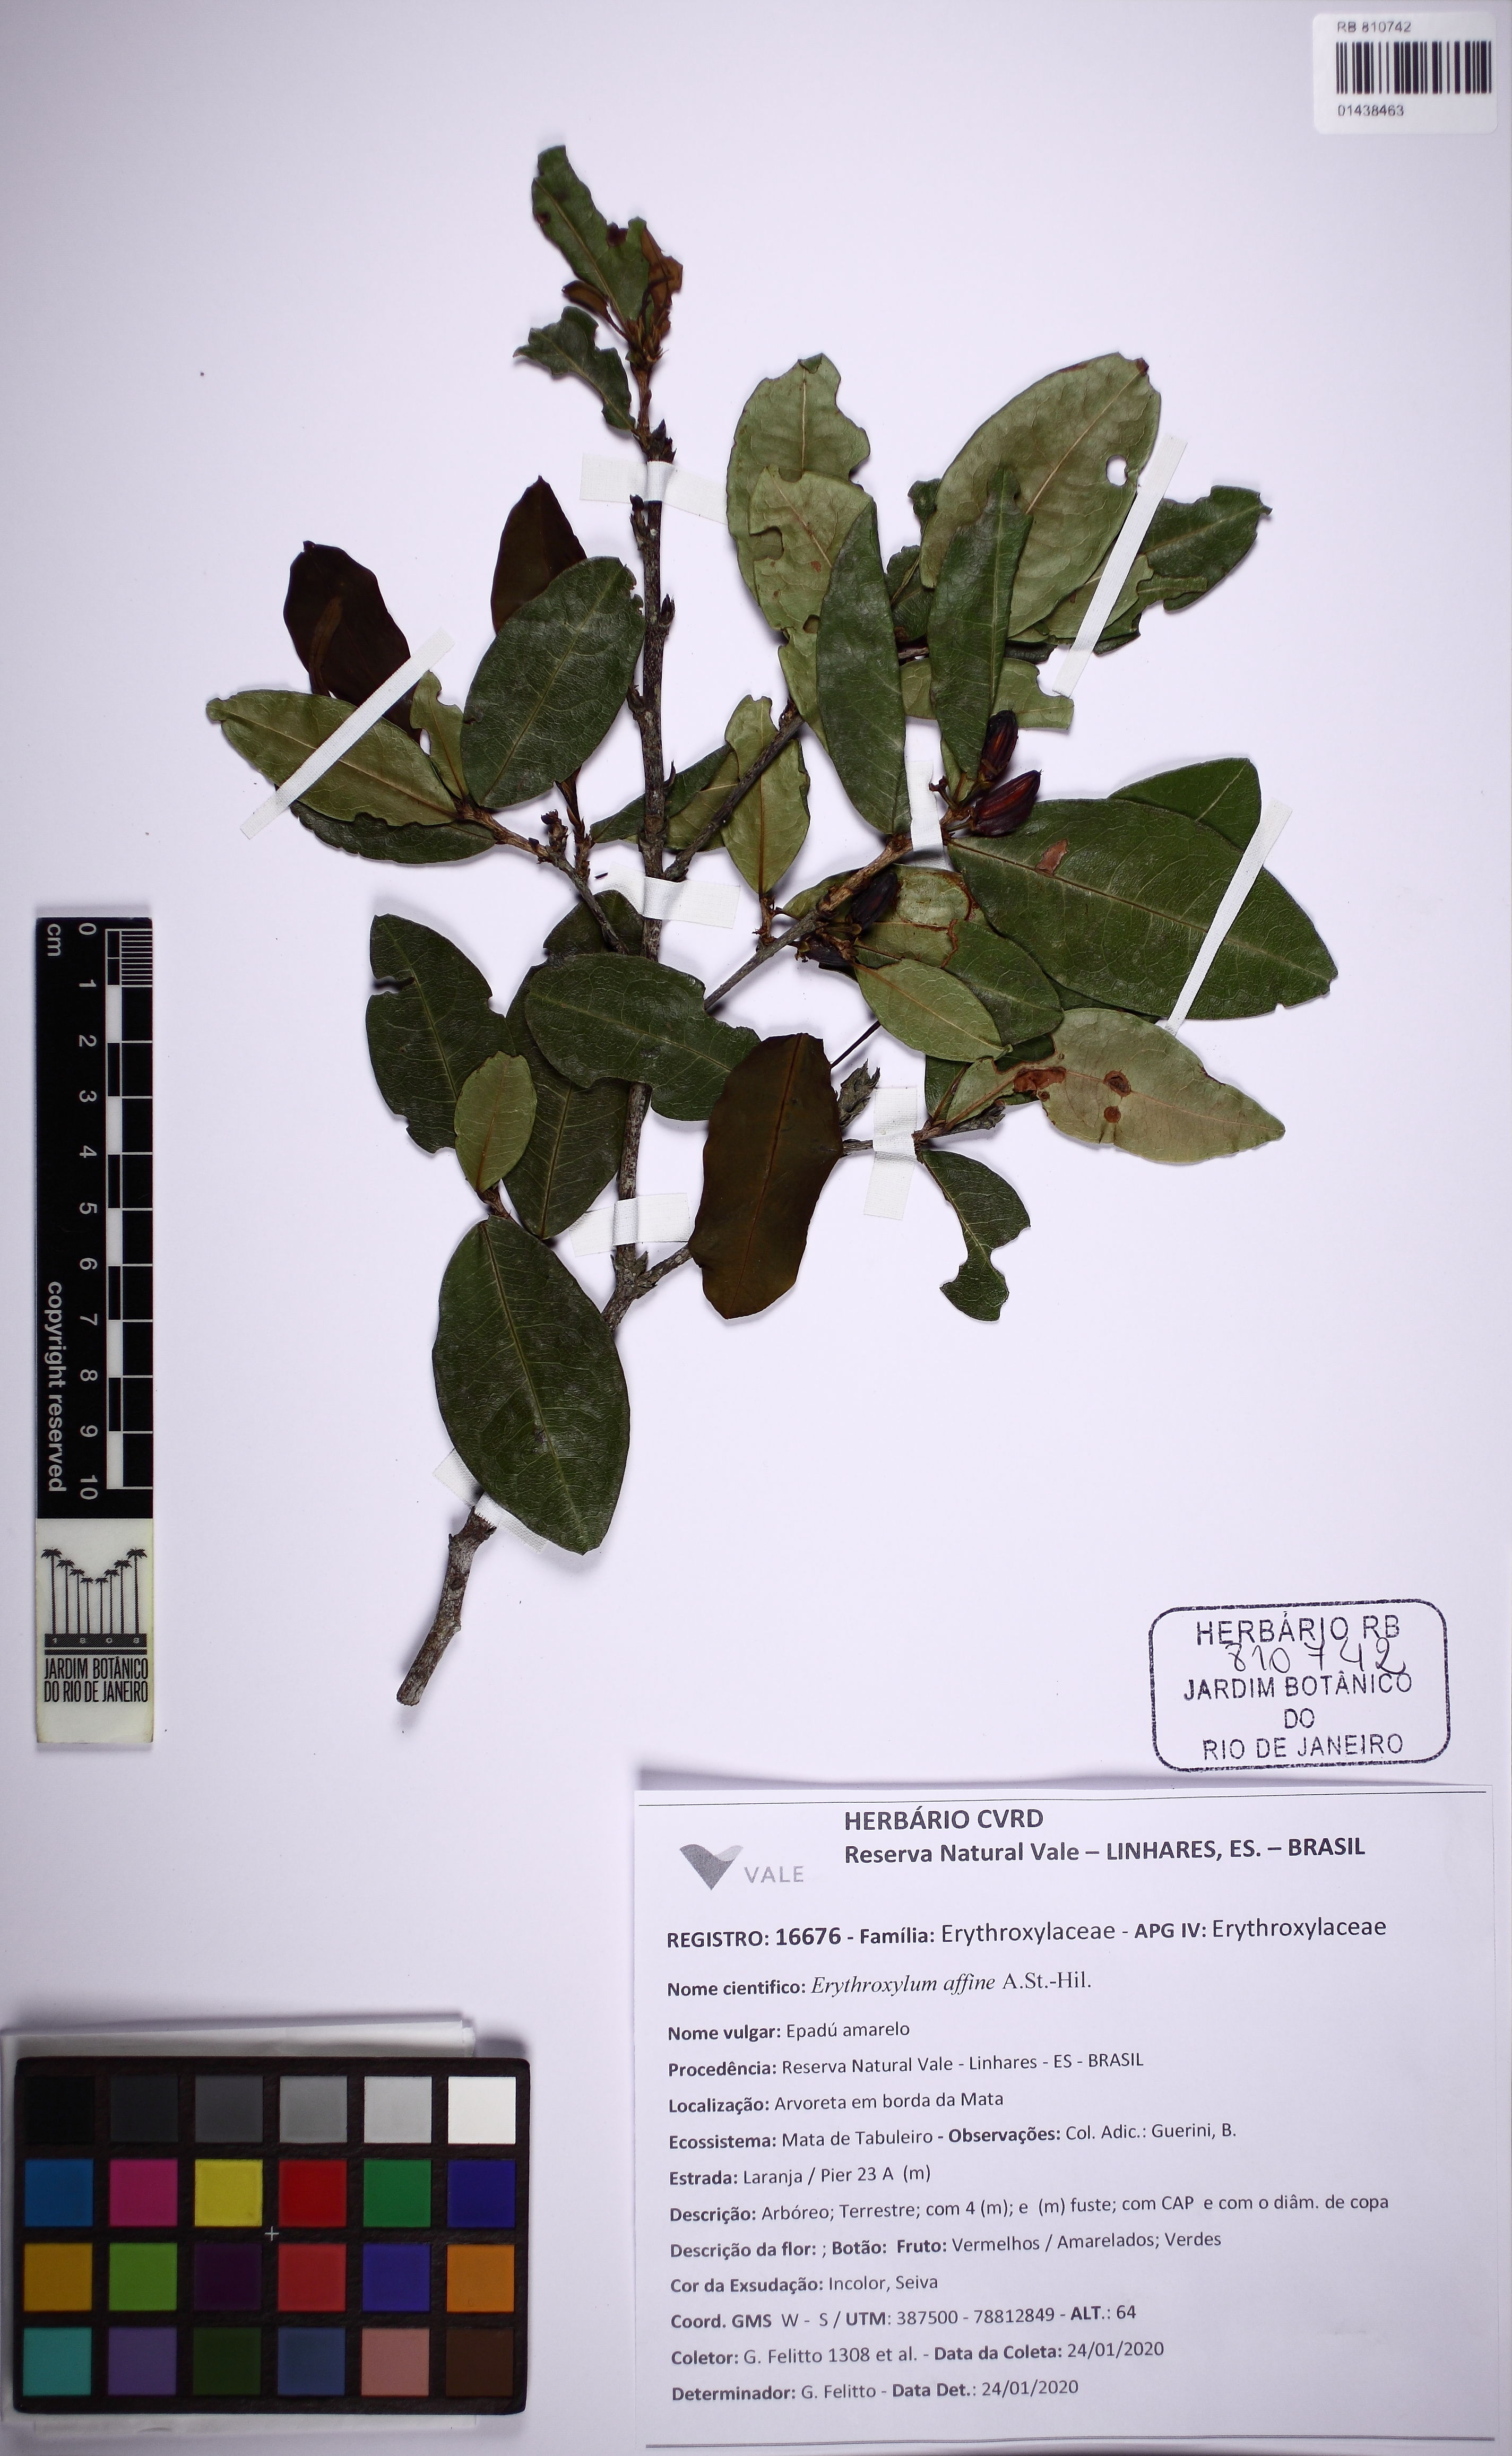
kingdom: Plantae
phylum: Tracheophyta
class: Magnoliopsida
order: Malpighiales
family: Erythroxylaceae
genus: Erythroxylum
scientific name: Erythroxylum affine
